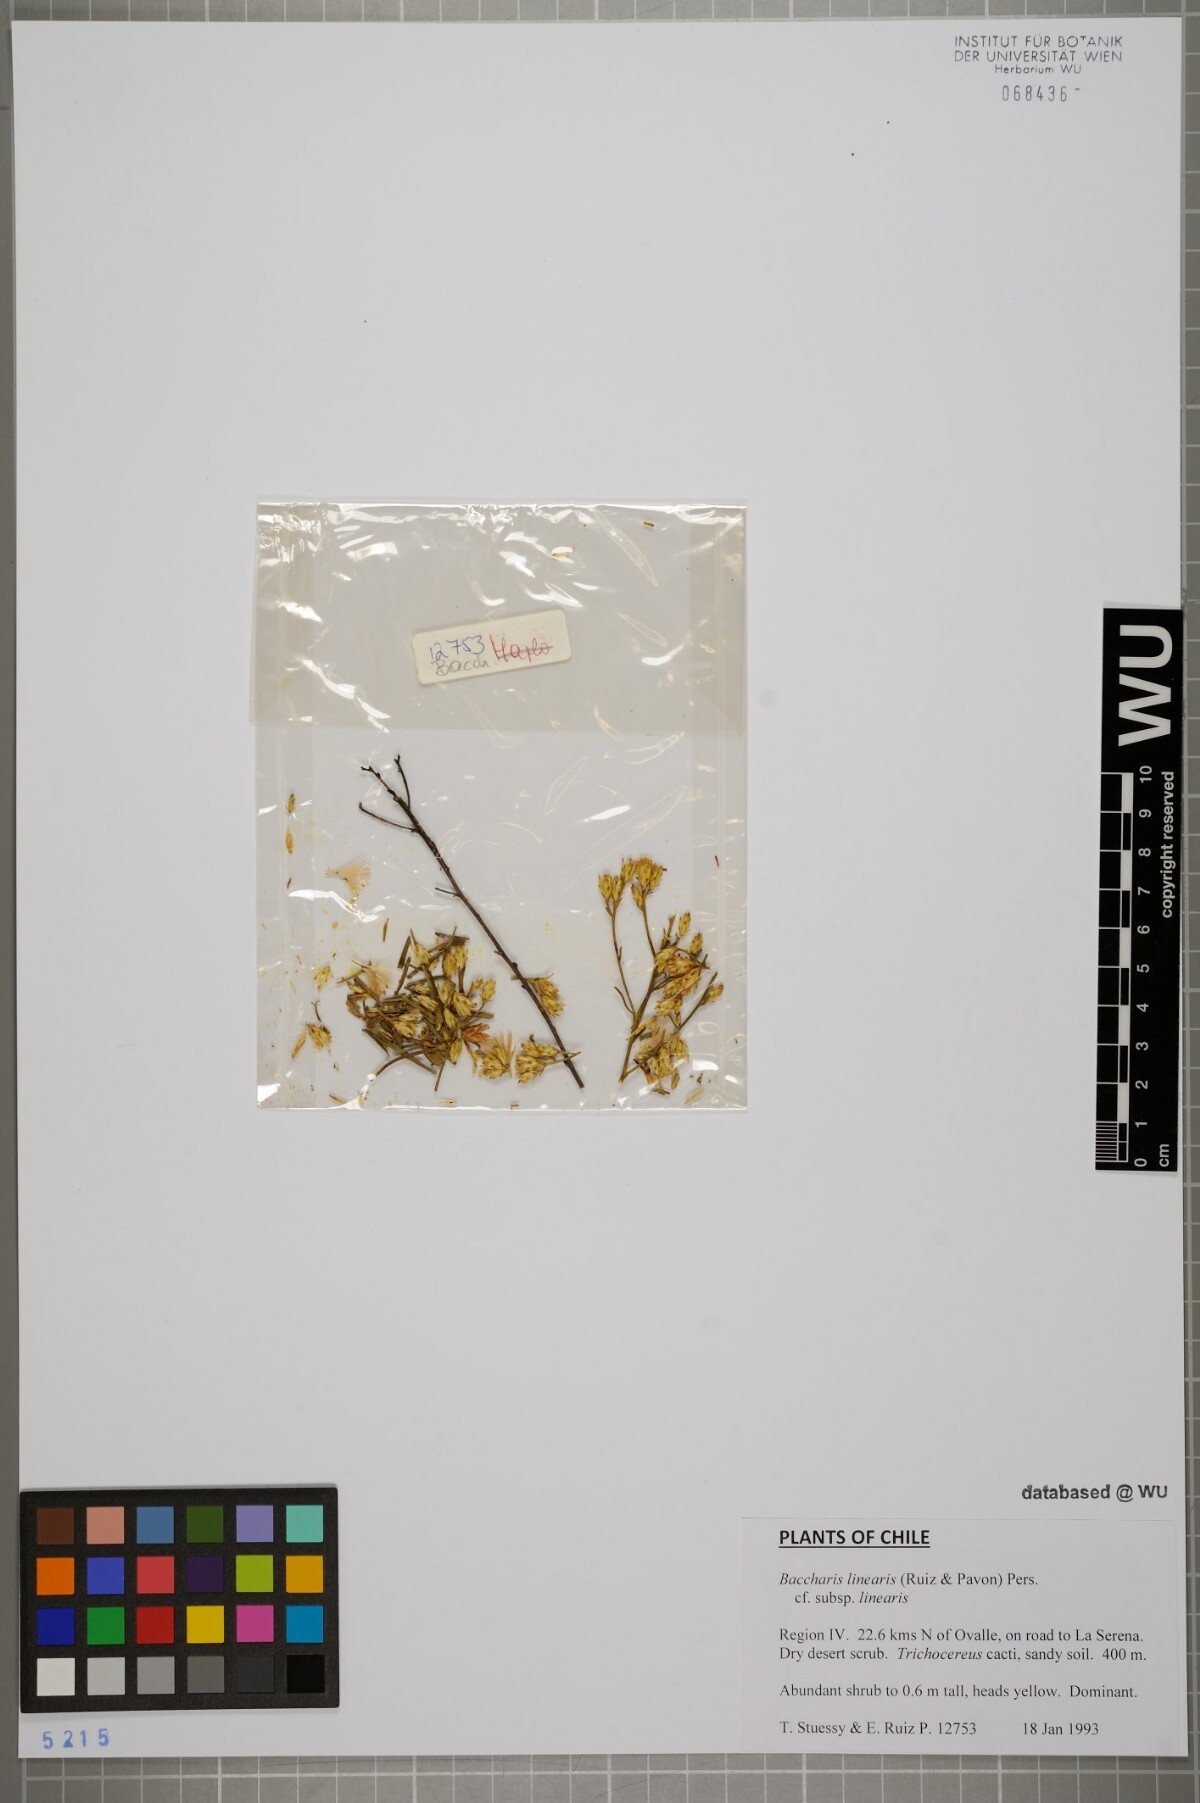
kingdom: Plantae
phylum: Tracheophyta
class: Magnoliopsida
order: Asterales
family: Asteraceae
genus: Baccharis
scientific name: Baccharis linearis
